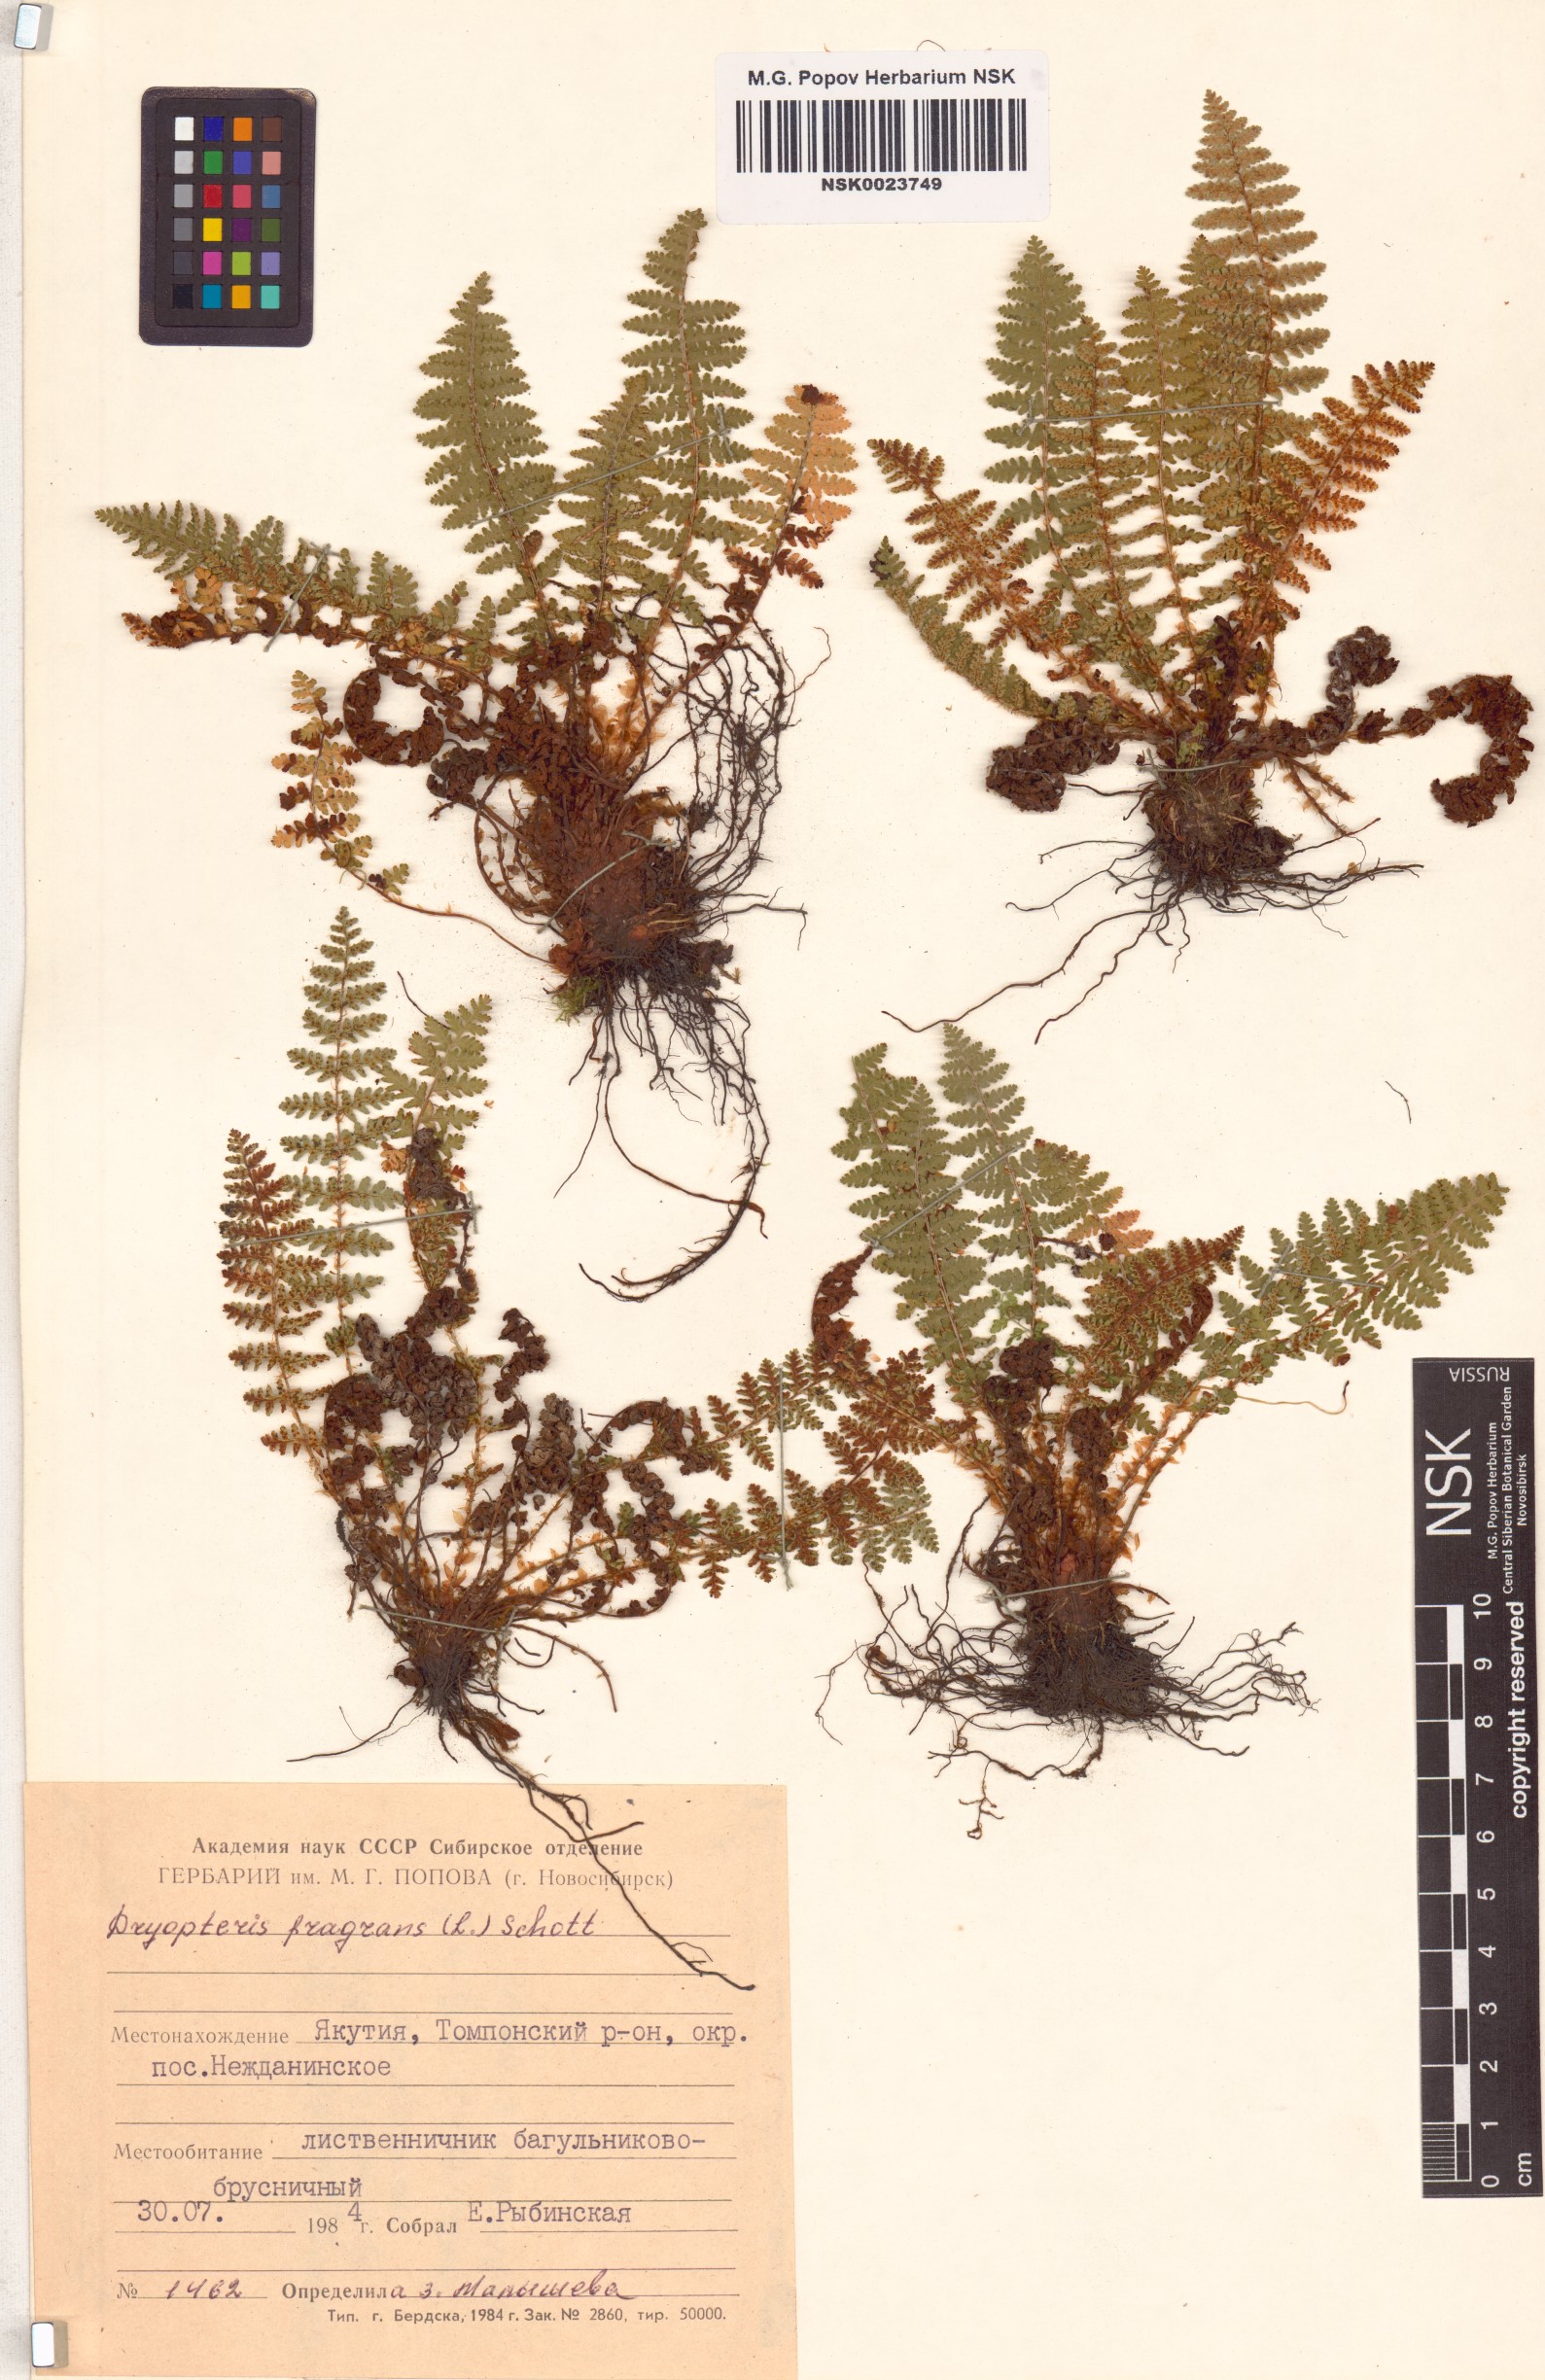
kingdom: Plantae
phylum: Tracheophyta
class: Polypodiopsida
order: Polypodiales
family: Dryopteridaceae
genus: Dryopteris
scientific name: Dryopteris fragrans
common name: Fragrant wood fern
